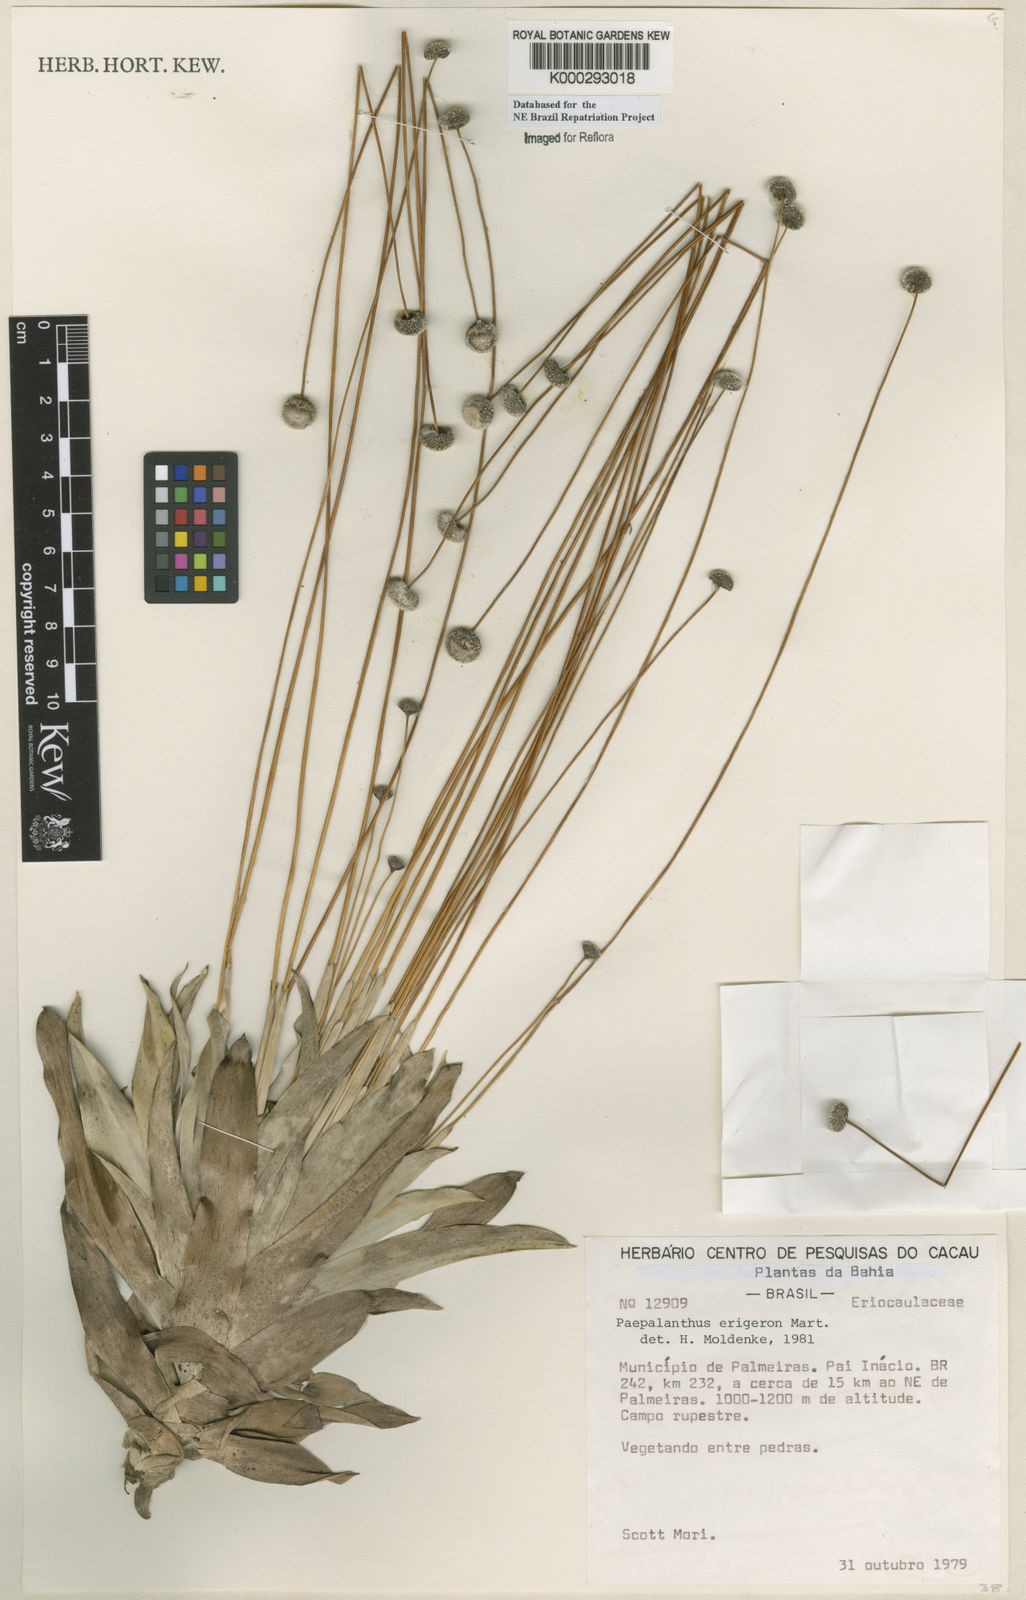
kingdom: Plantae
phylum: Tracheophyta
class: Liliopsida
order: Poales
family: Eriocaulaceae
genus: Paepalanthus
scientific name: Paepalanthus
